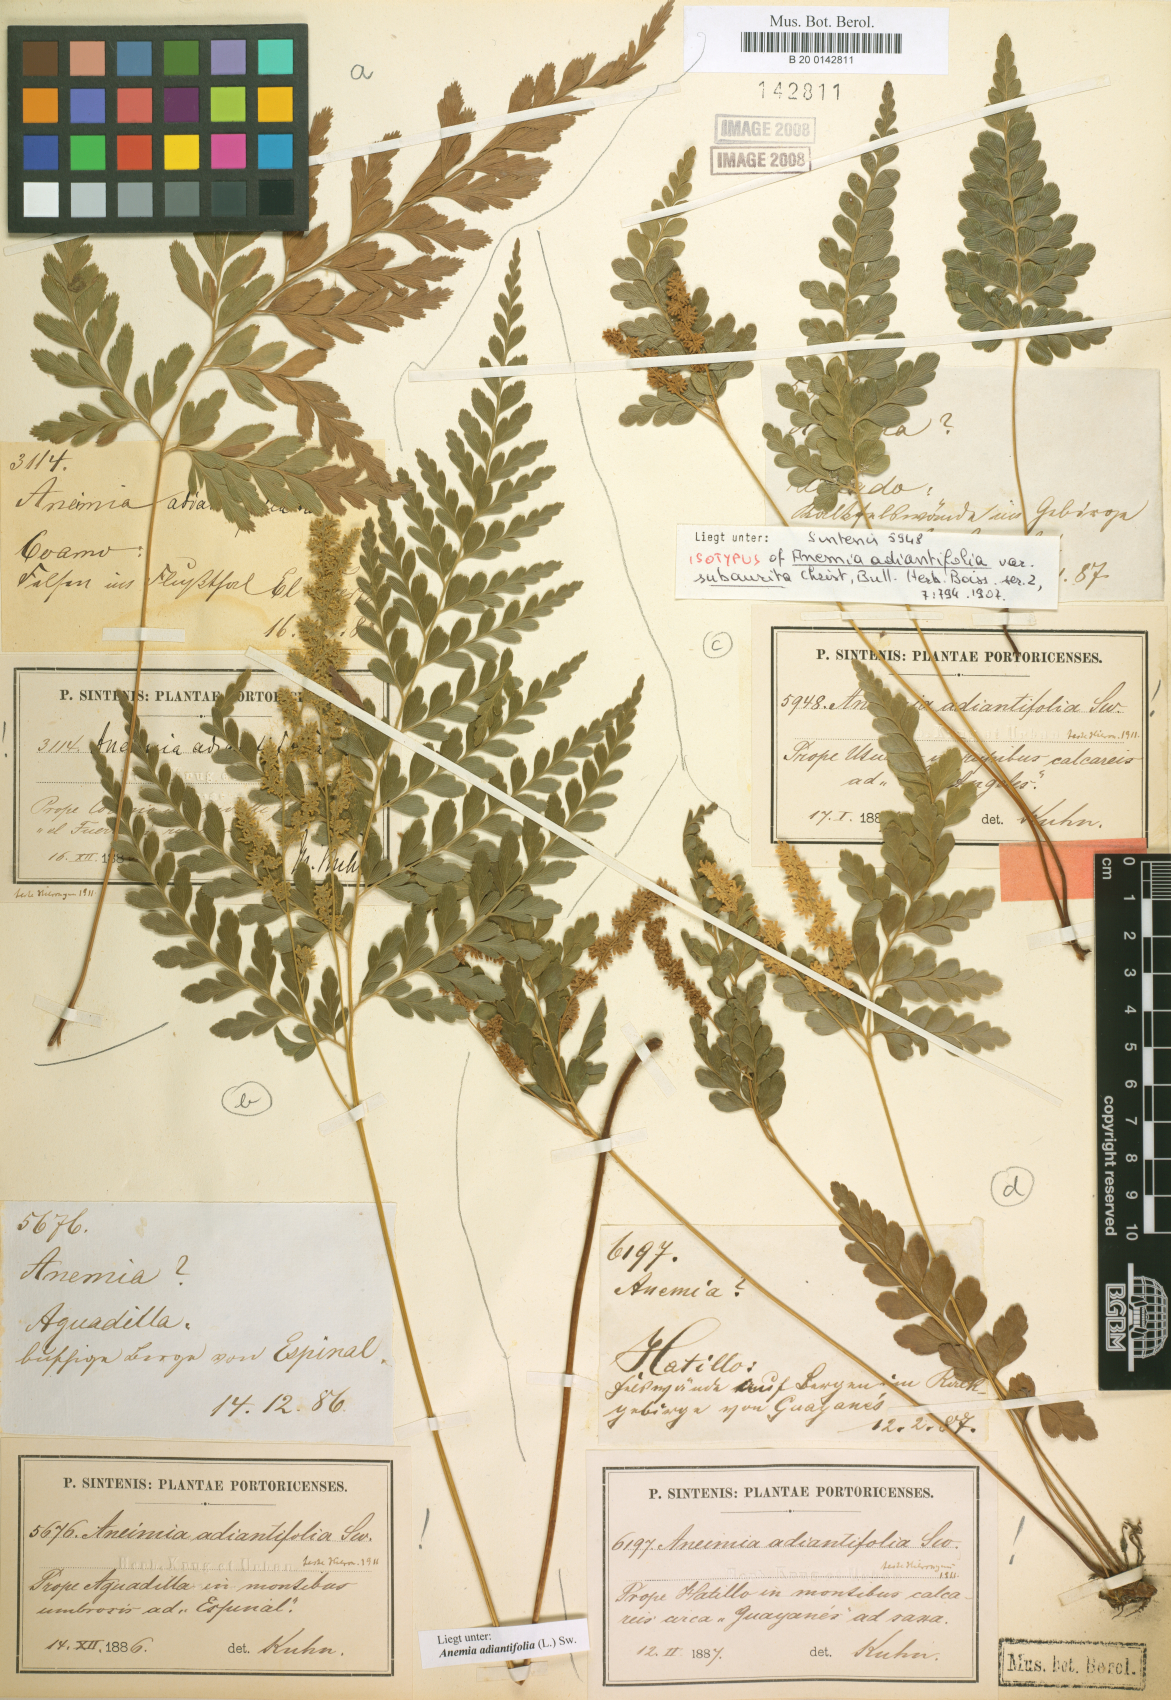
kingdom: Plantae
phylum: Tracheophyta
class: Polypodiopsida
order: Schizaeales
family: Anemiaceae
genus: Anemia
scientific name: Anemia adiantifolia
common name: Pine fern
